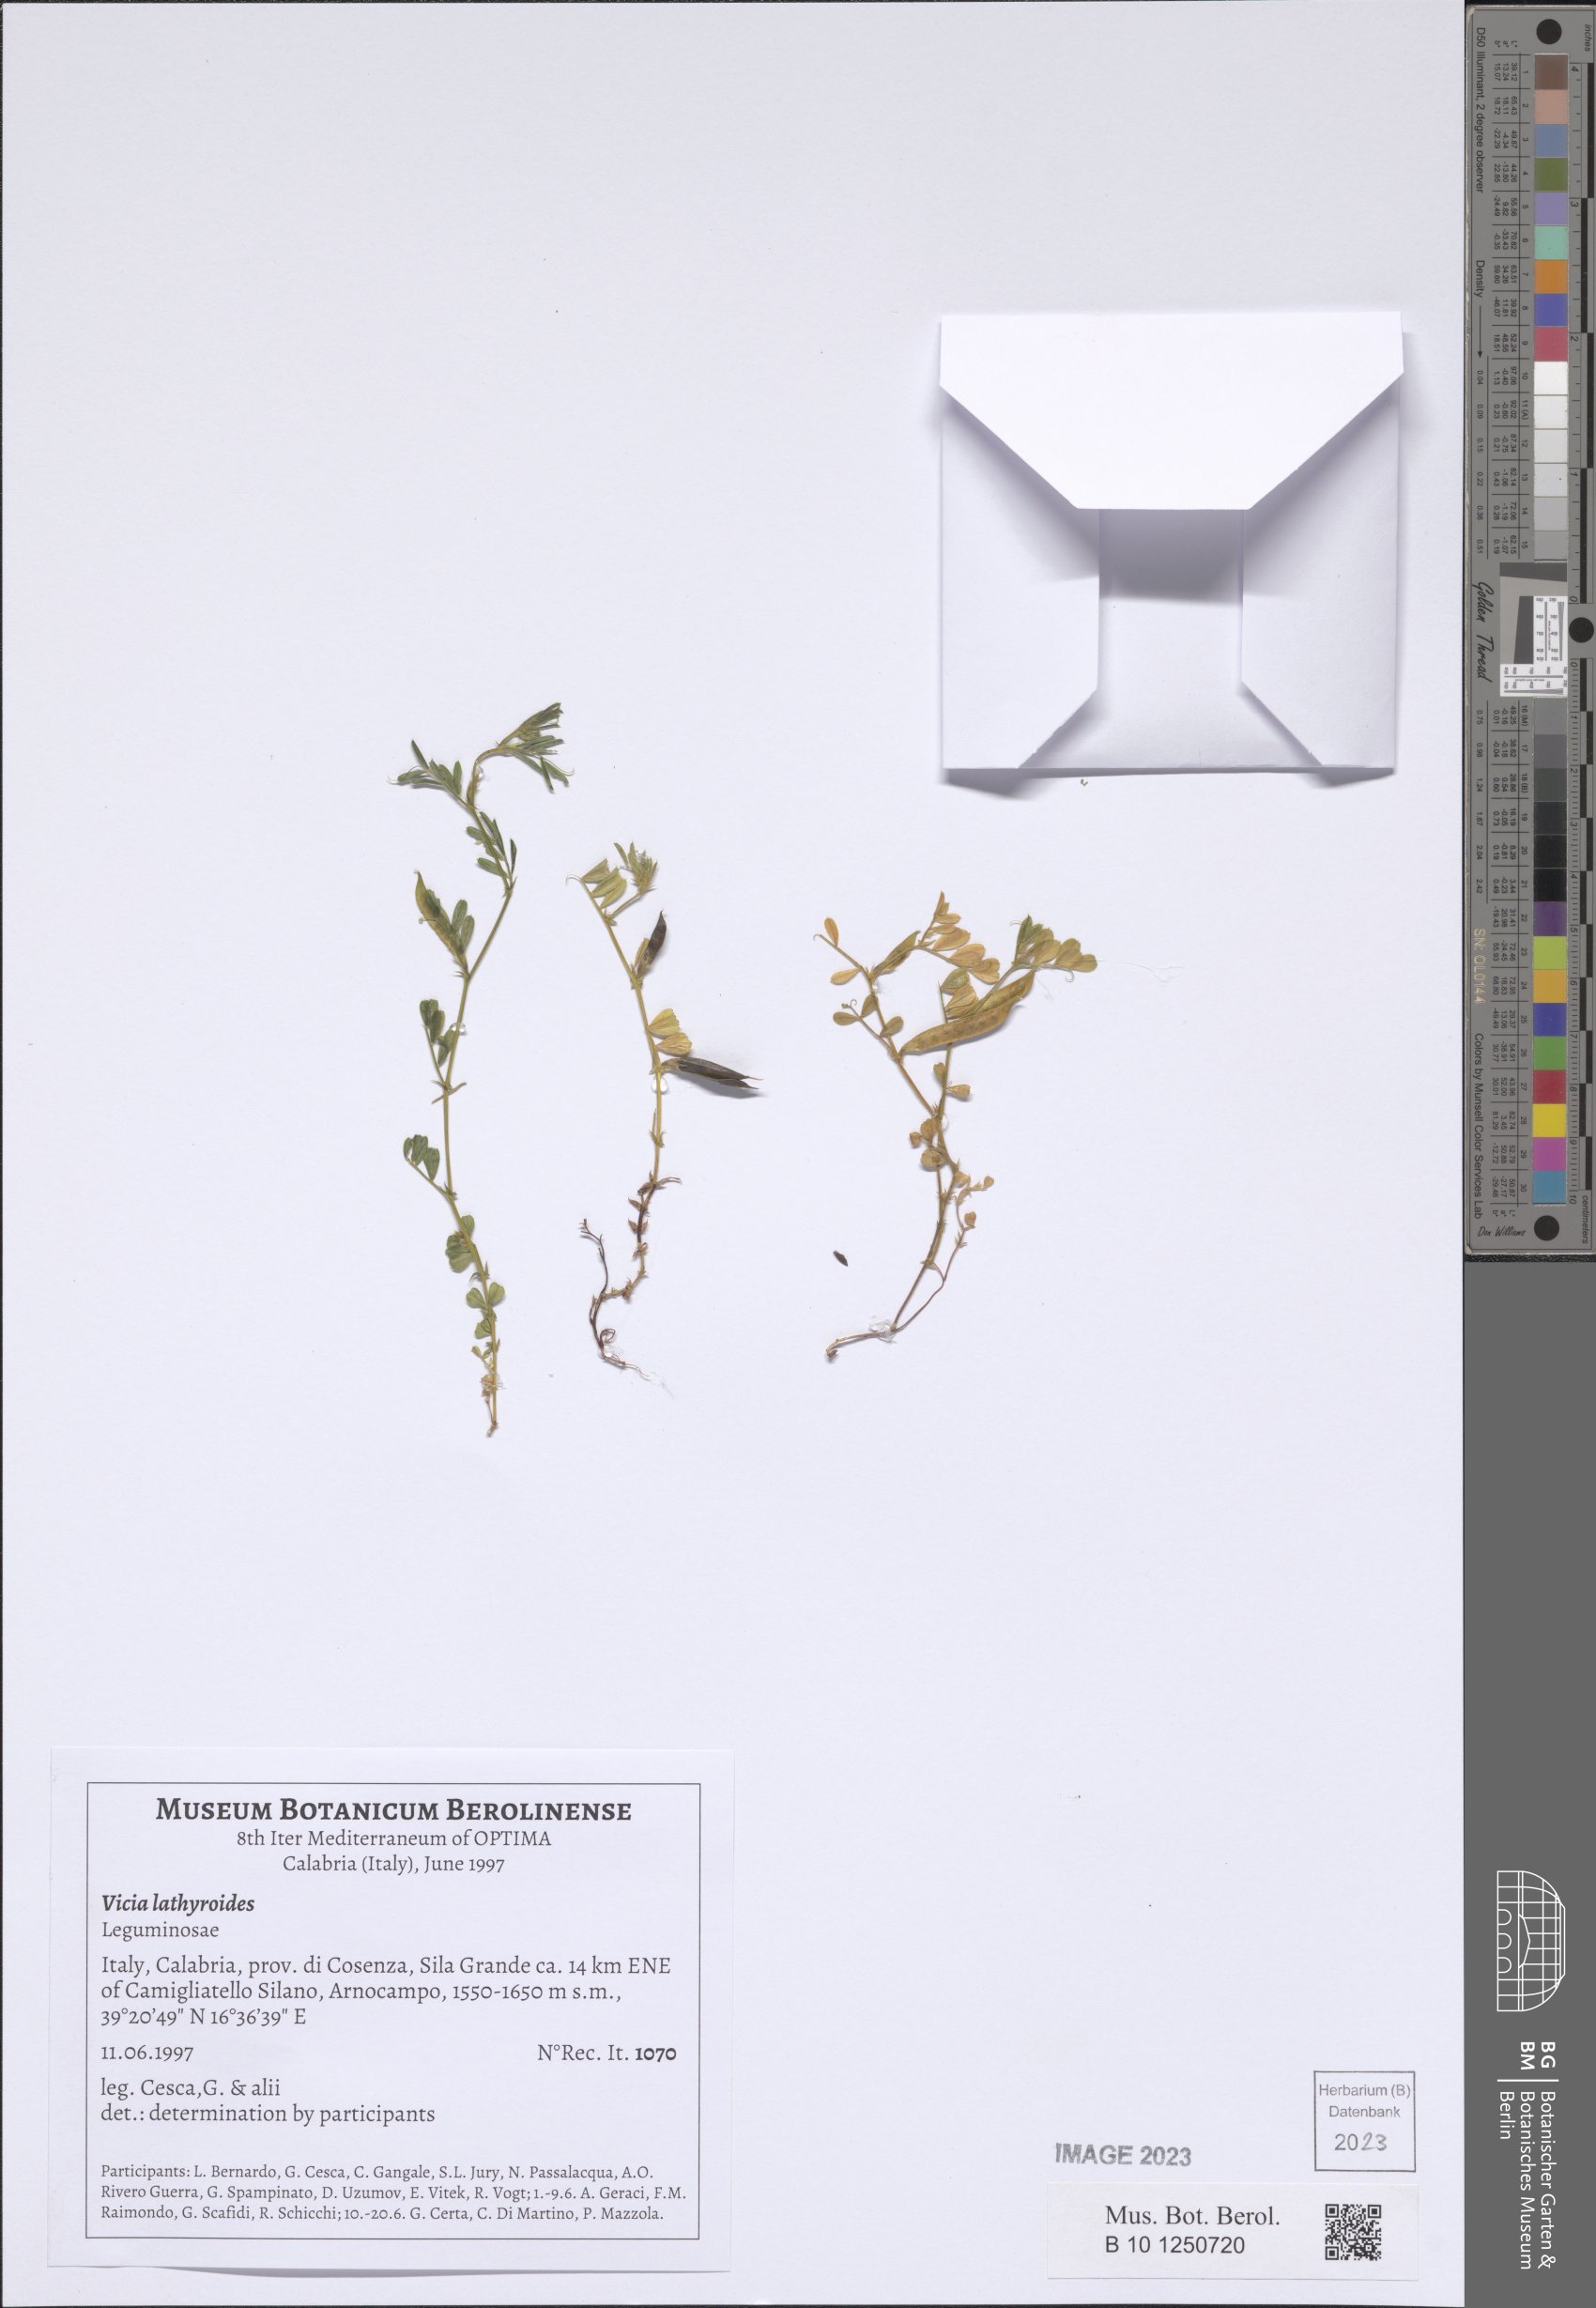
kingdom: Plantae
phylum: Tracheophyta
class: Magnoliopsida
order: Fabales
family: Fabaceae
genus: Vicia
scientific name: Vicia lathyroides
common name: Spring vetch
